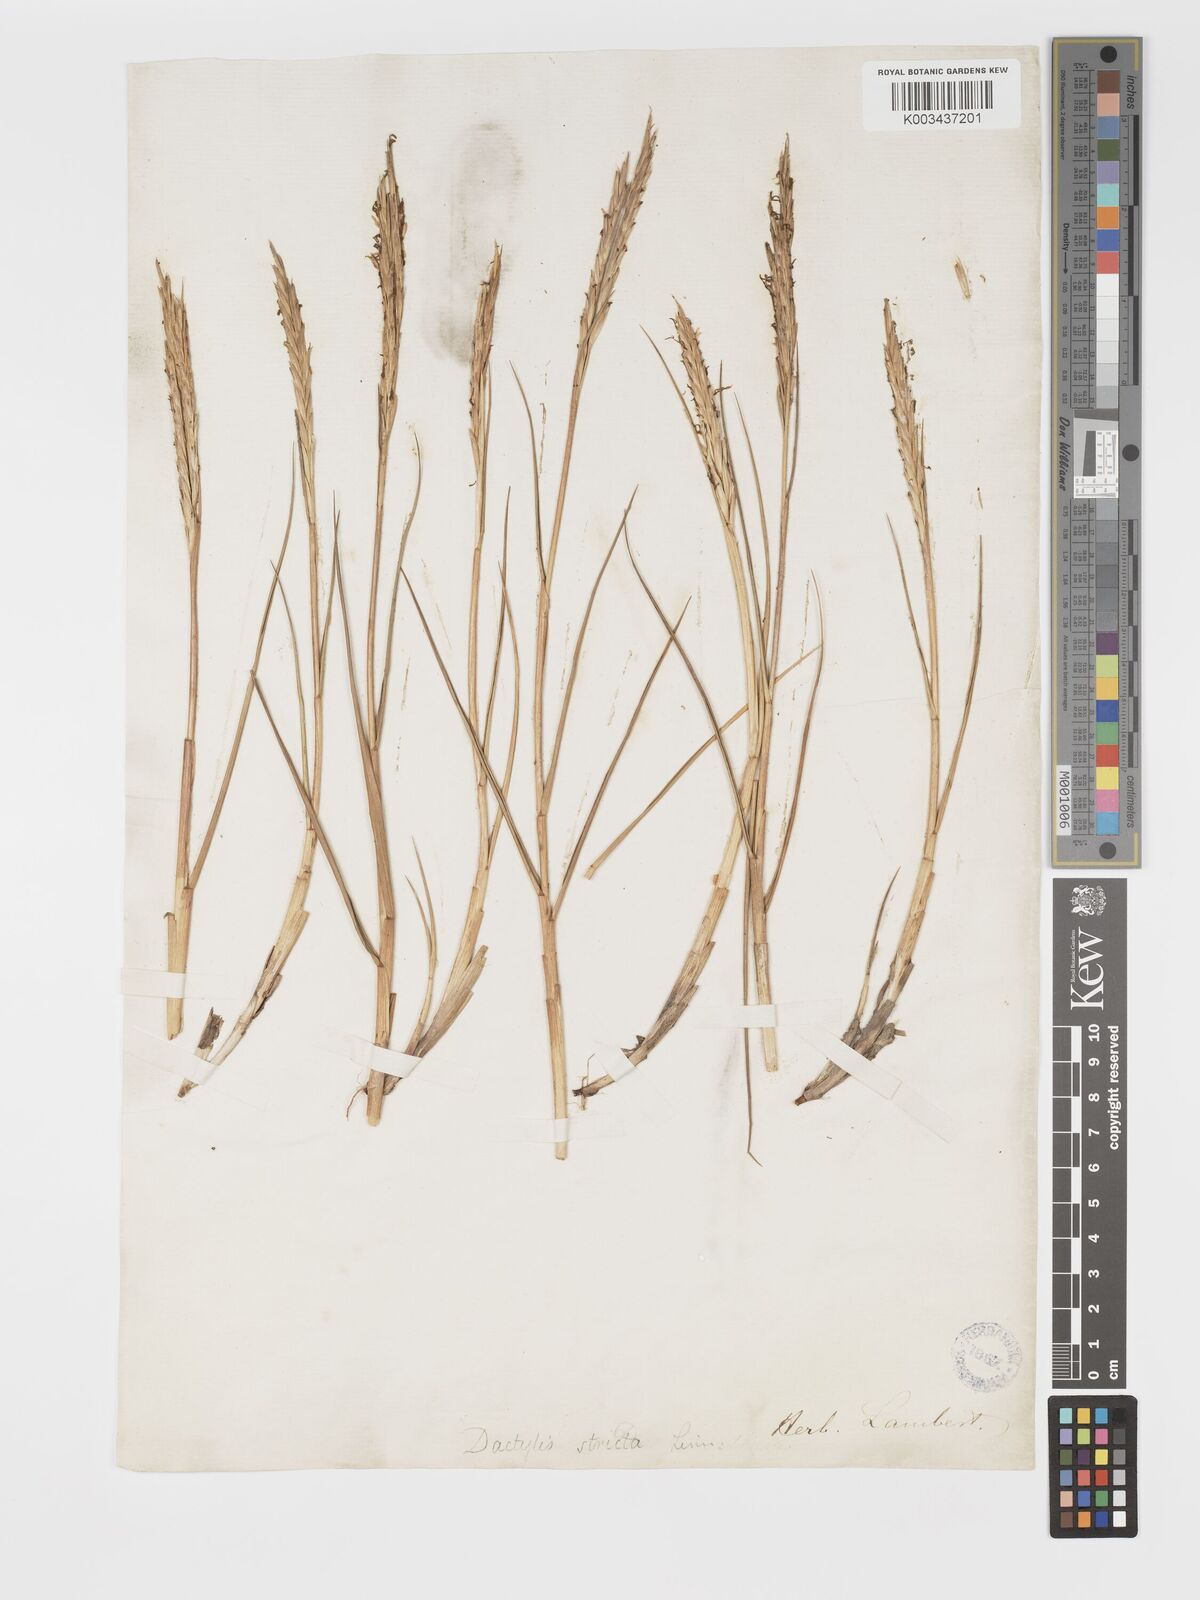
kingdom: Plantae
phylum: Tracheophyta
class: Liliopsida
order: Poales
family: Poaceae
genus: Sporobolus
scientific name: Sporobolus maritimus
